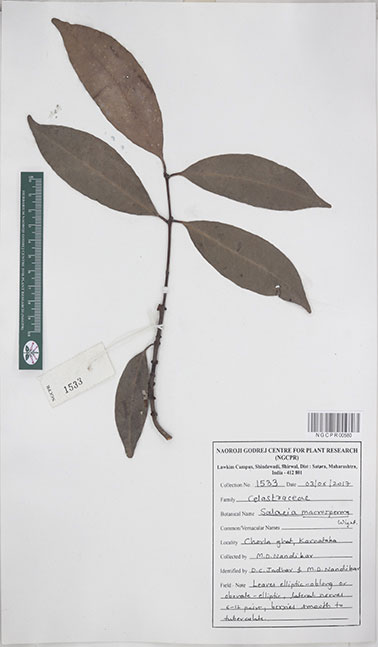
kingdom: Plantae
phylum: Tracheophyta
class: Magnoliopsida
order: Celastrales
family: Celastraceae
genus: Salacia
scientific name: Salacia macrosperma
